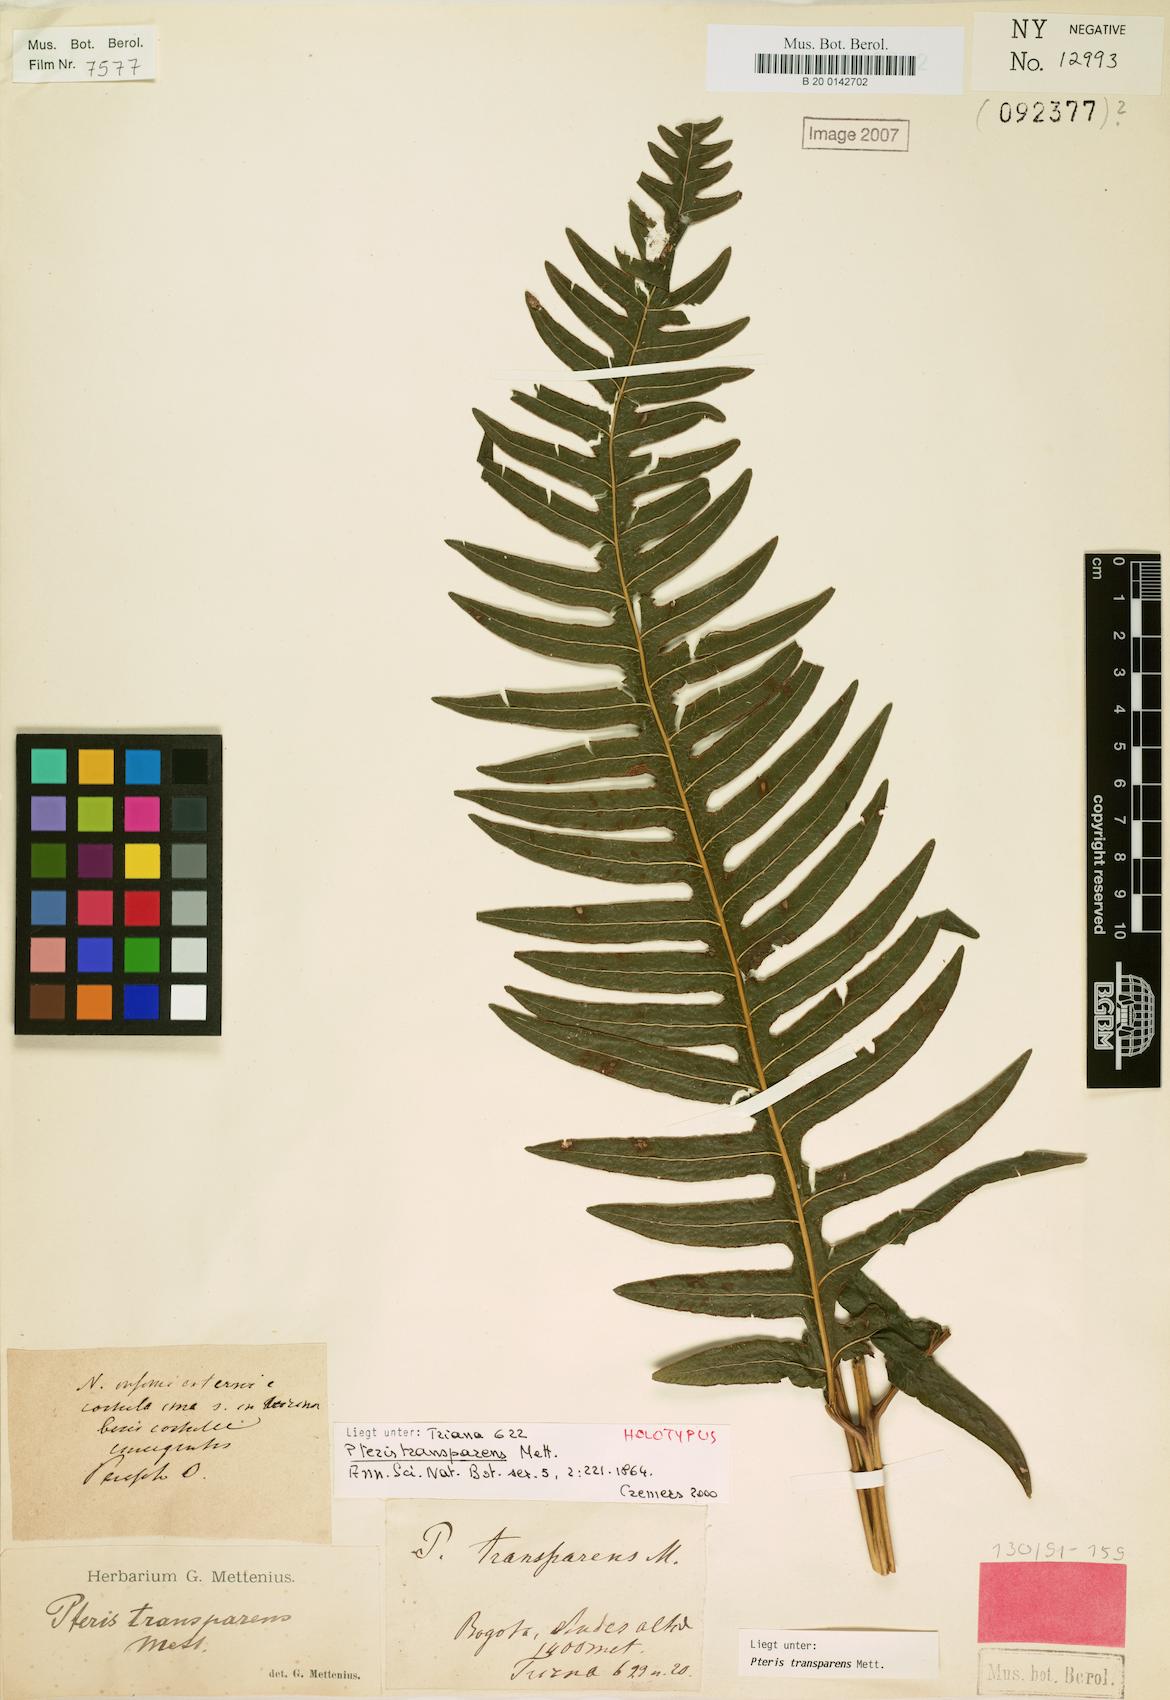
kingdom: Plantae
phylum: Tracheophyta
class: Polypodiopsida
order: Polypodiales
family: Pteridaceae
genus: Pteris
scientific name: Pteris transparens
